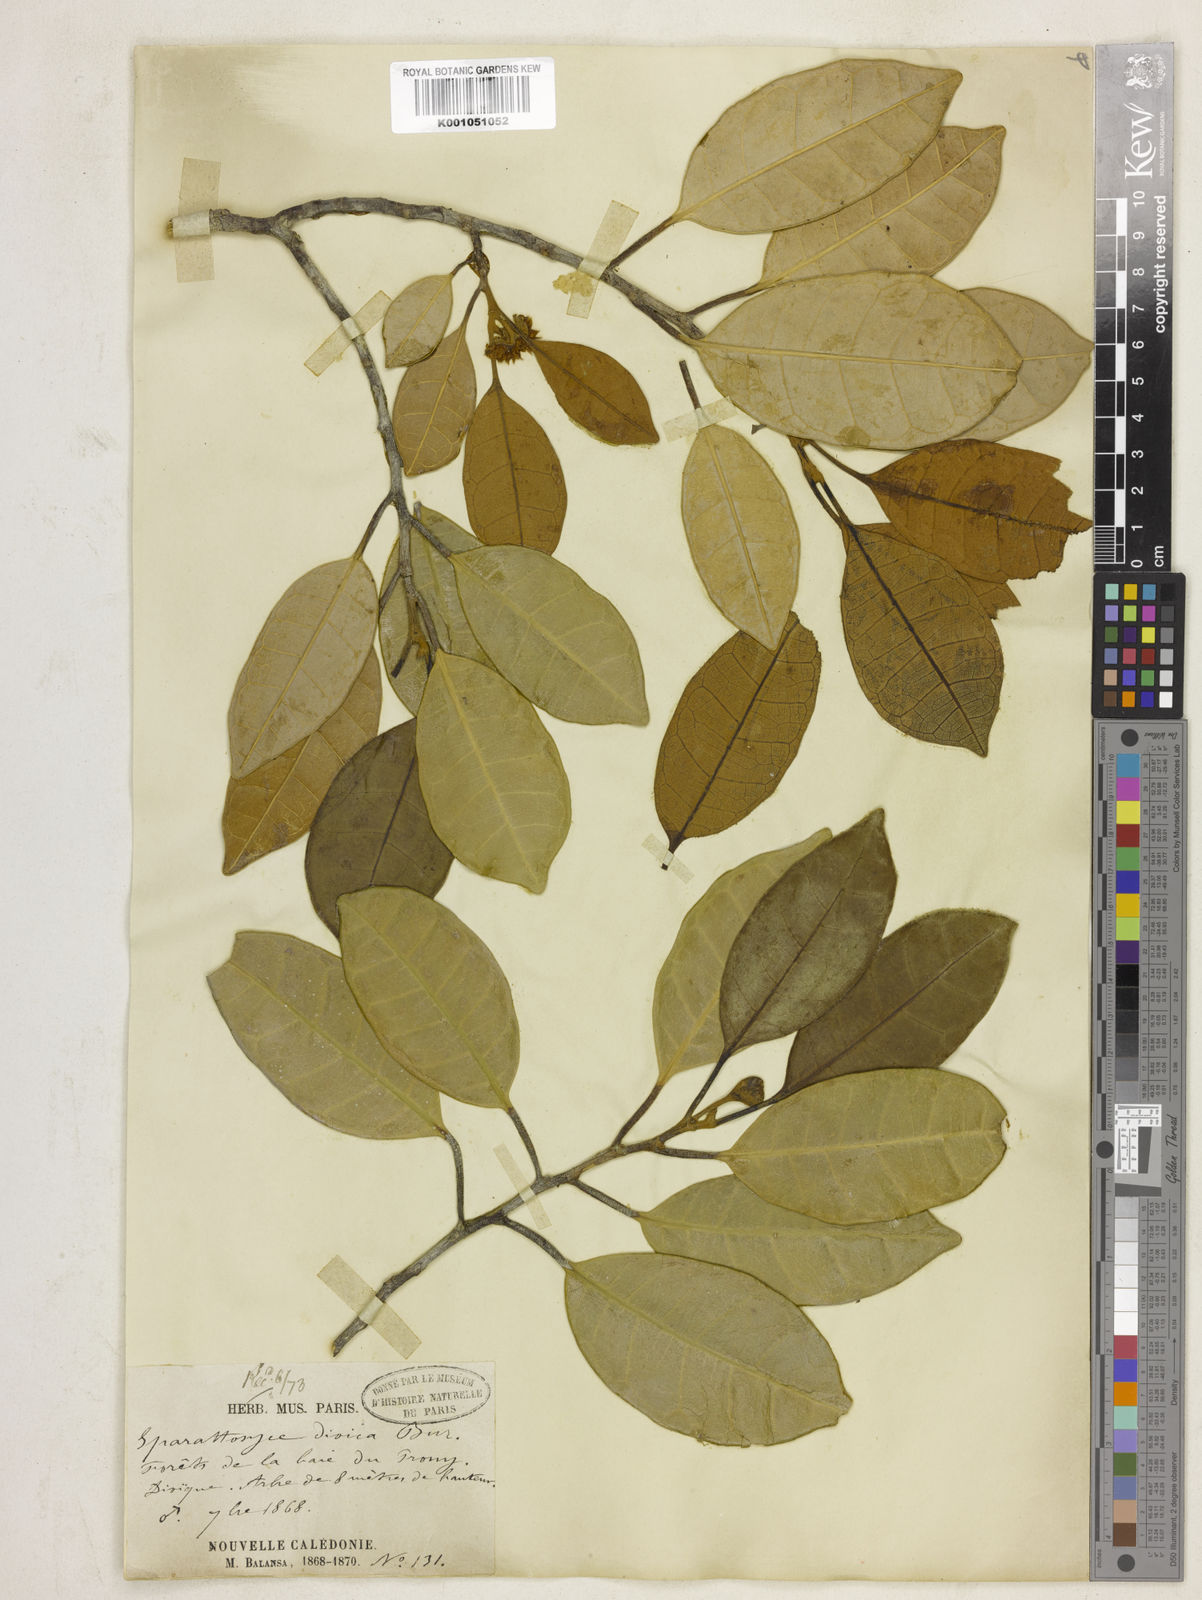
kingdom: Plantae
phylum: Tracheophyta
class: Magnoliopsida
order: Rosales
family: Moraceae
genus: Sparattosyce
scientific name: Sparattosyce dioica
